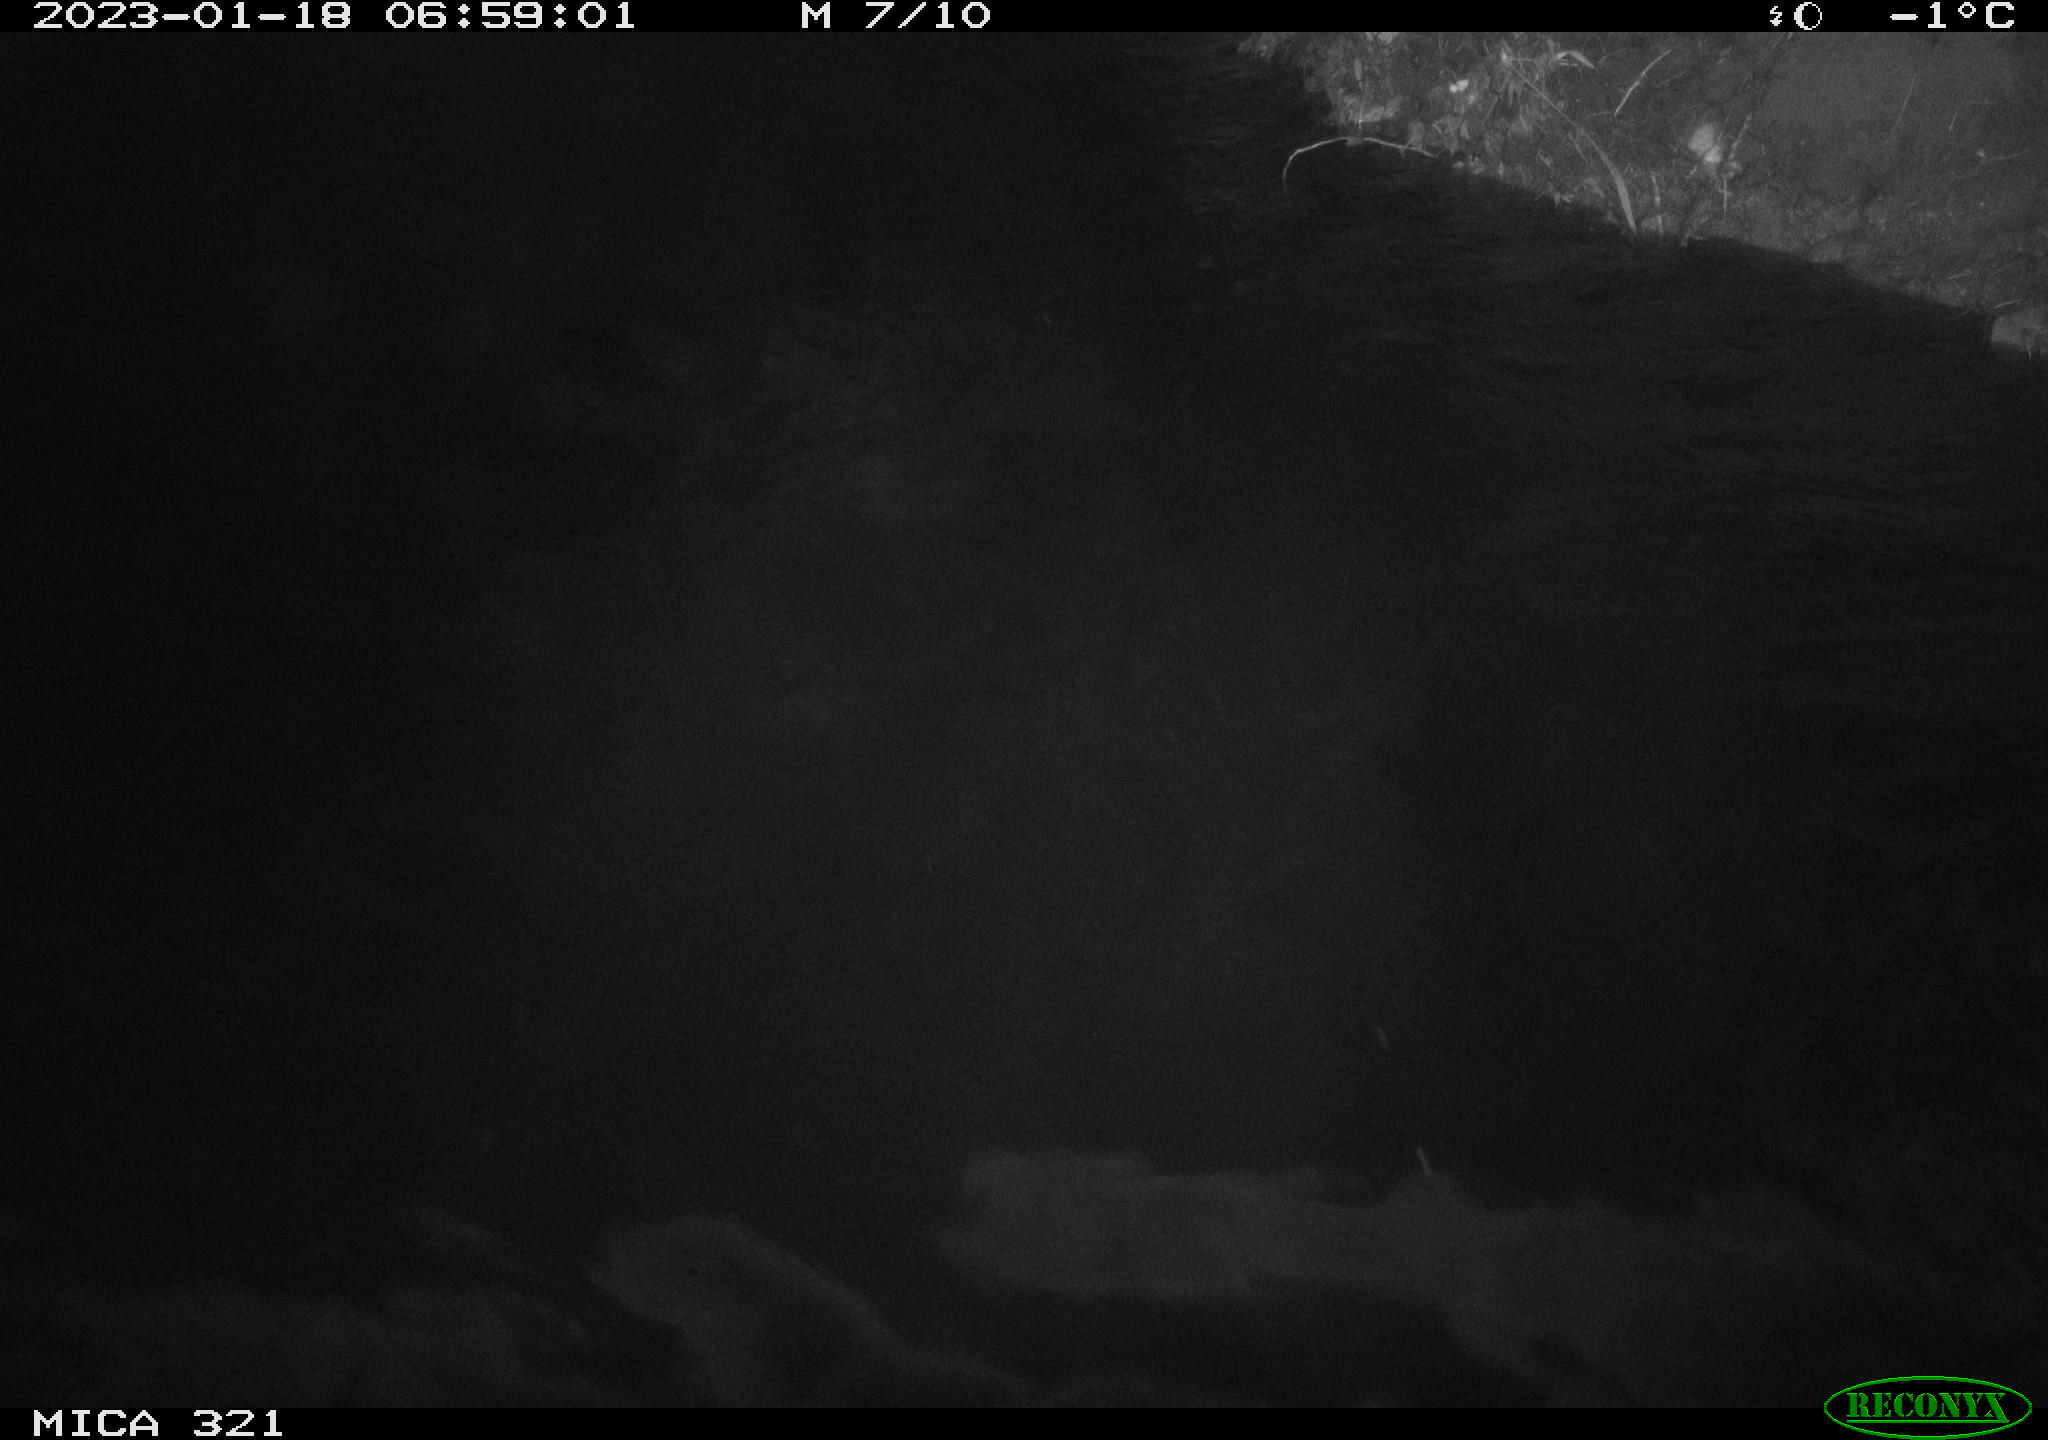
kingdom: Animalia
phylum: Chordata
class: Aves
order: Anseriformes
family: Anatidae
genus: Anas
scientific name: Anas
